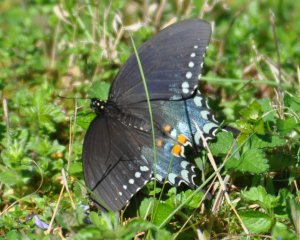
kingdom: Animalia
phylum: Arthropoda
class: Insecta
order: Lepidoptera
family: Papilionidae
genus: Pterourus
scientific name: Pterourus troilus
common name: Spicebush Swallowtail
